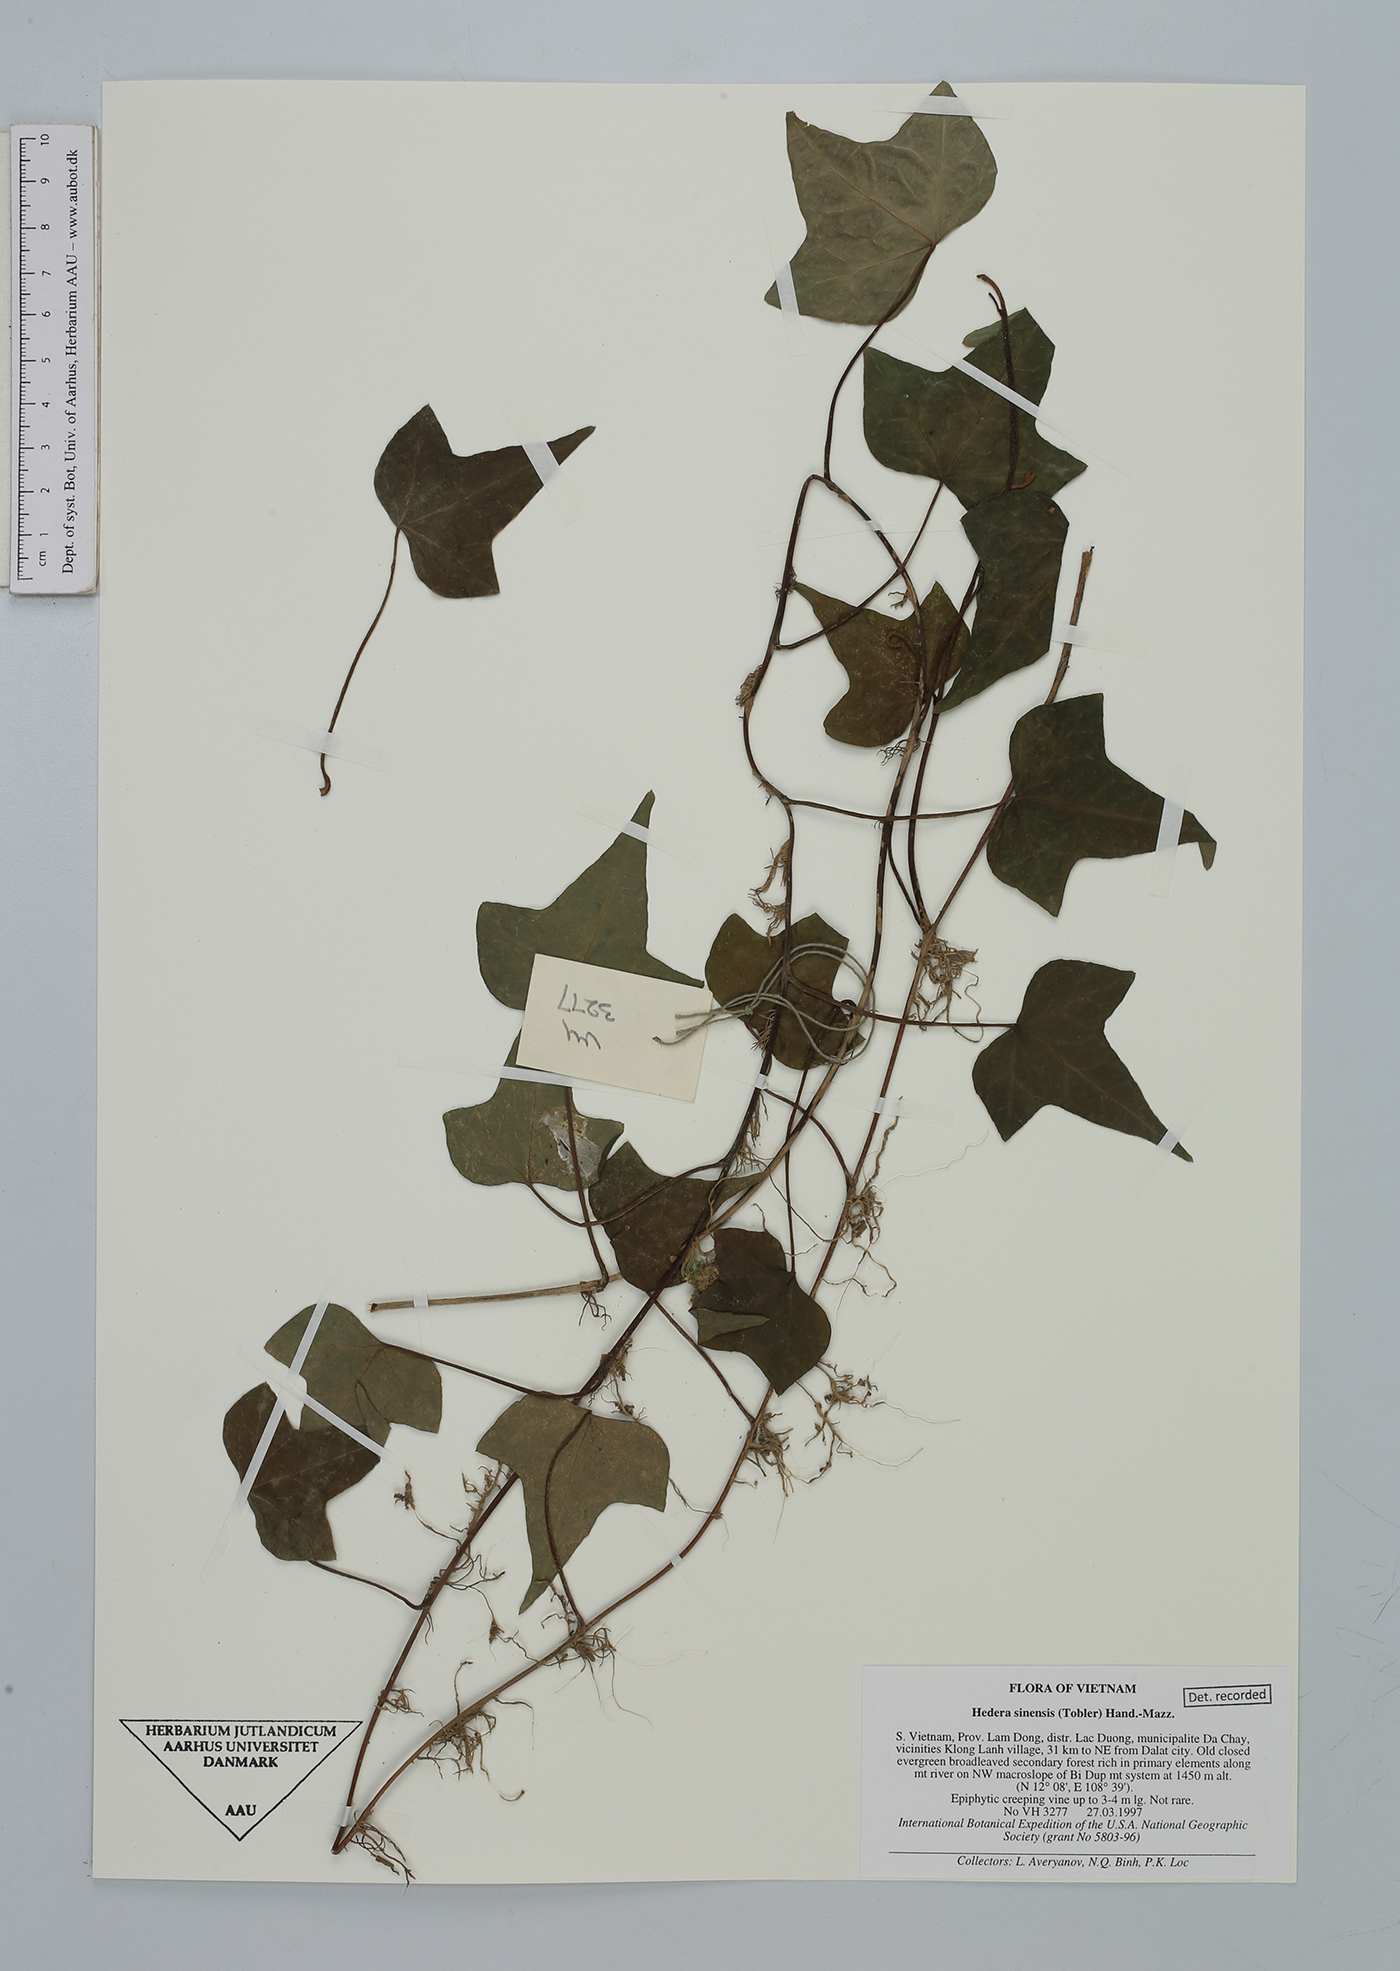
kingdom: Plantae
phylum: Tracheophyta
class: Magnoliopsida
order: Apiales
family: Araliaceae
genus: Hedera
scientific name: Hedera sinensis
